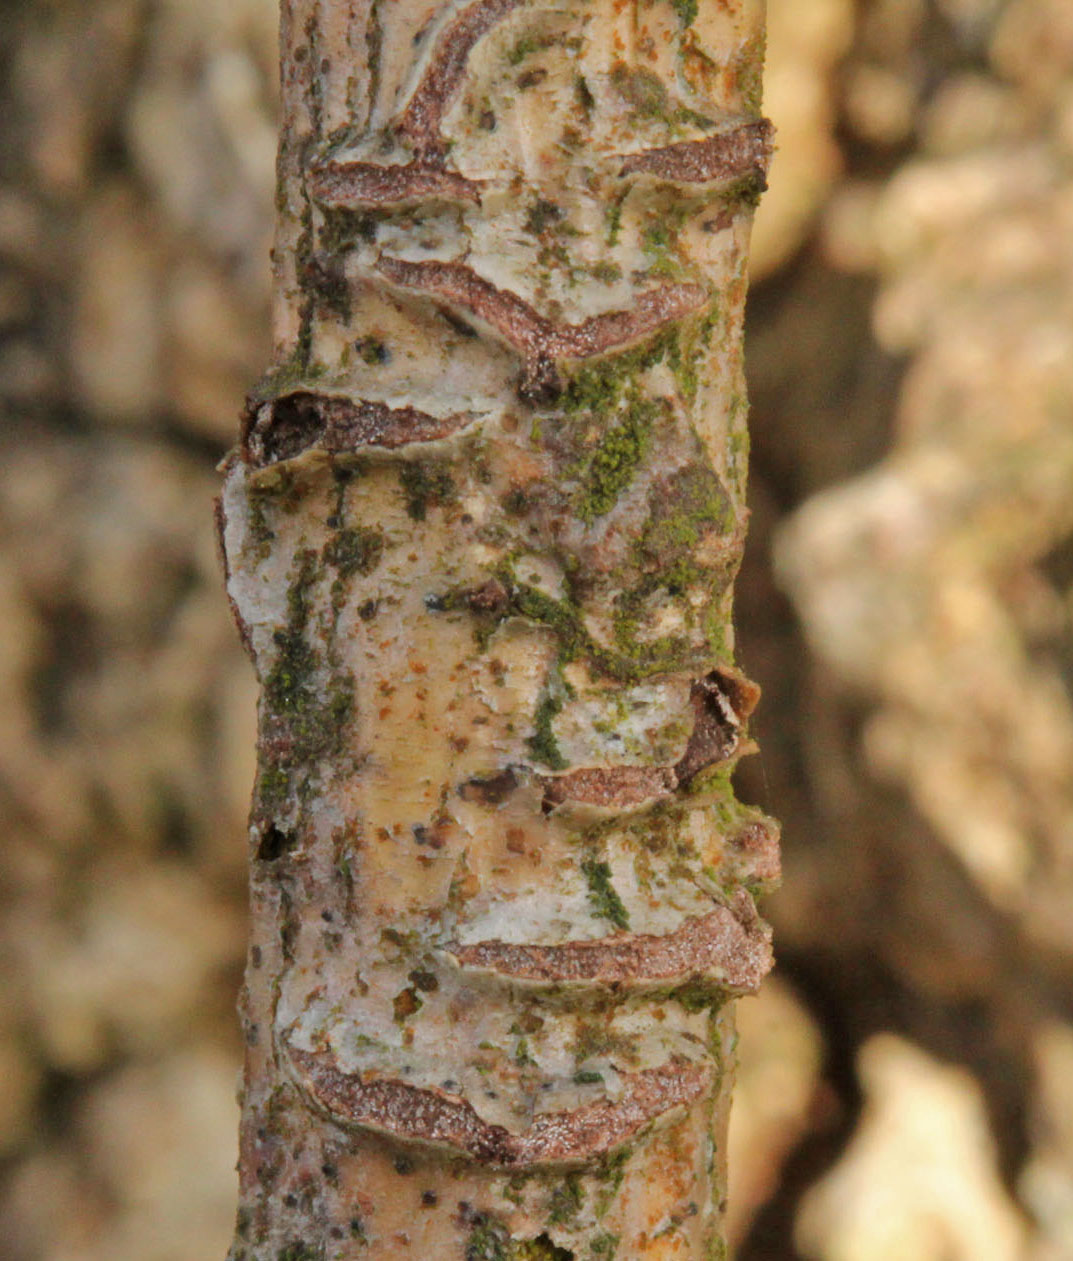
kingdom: Fungi
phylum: Basidiomycota
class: Agaricomycetes
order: Corticiales
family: Corticiaceae
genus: Marchandiomyces
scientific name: Marchandiomyces aurantioroseus
